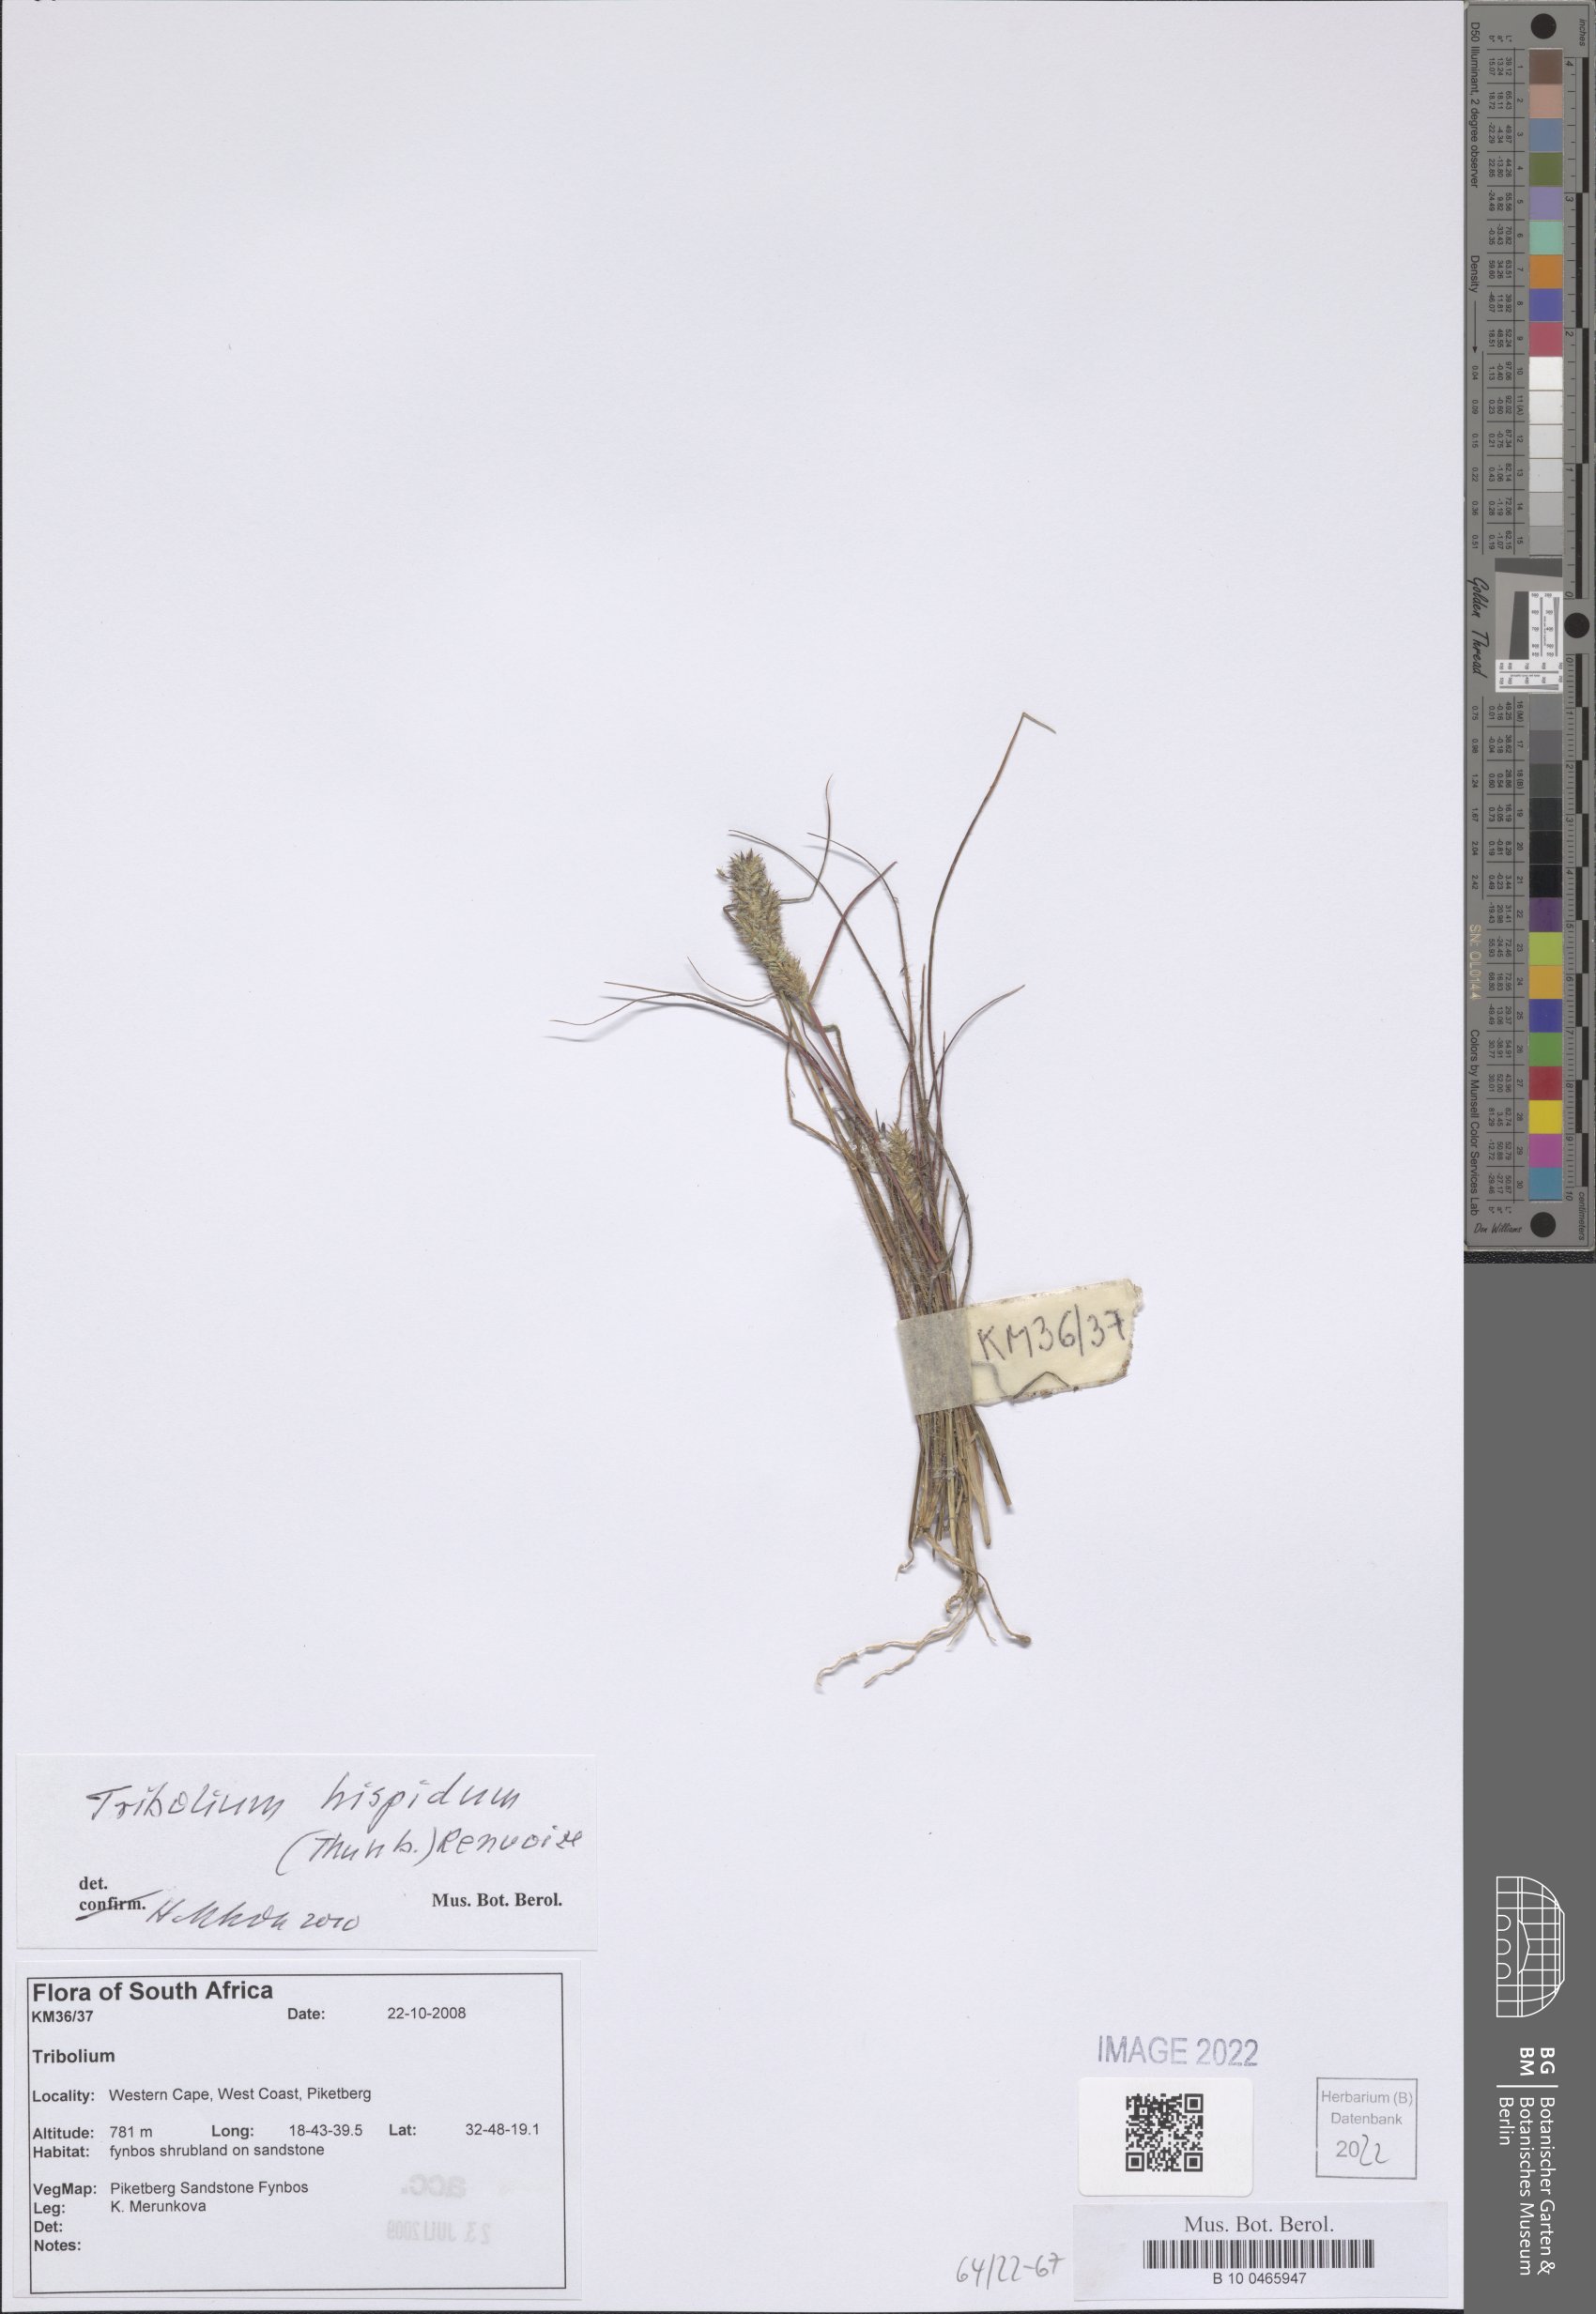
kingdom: Plantae
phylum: Tracheophyta
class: Liliopsida
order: Poales
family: Poaceae
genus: Tribolium
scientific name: Tribolium hispidum
